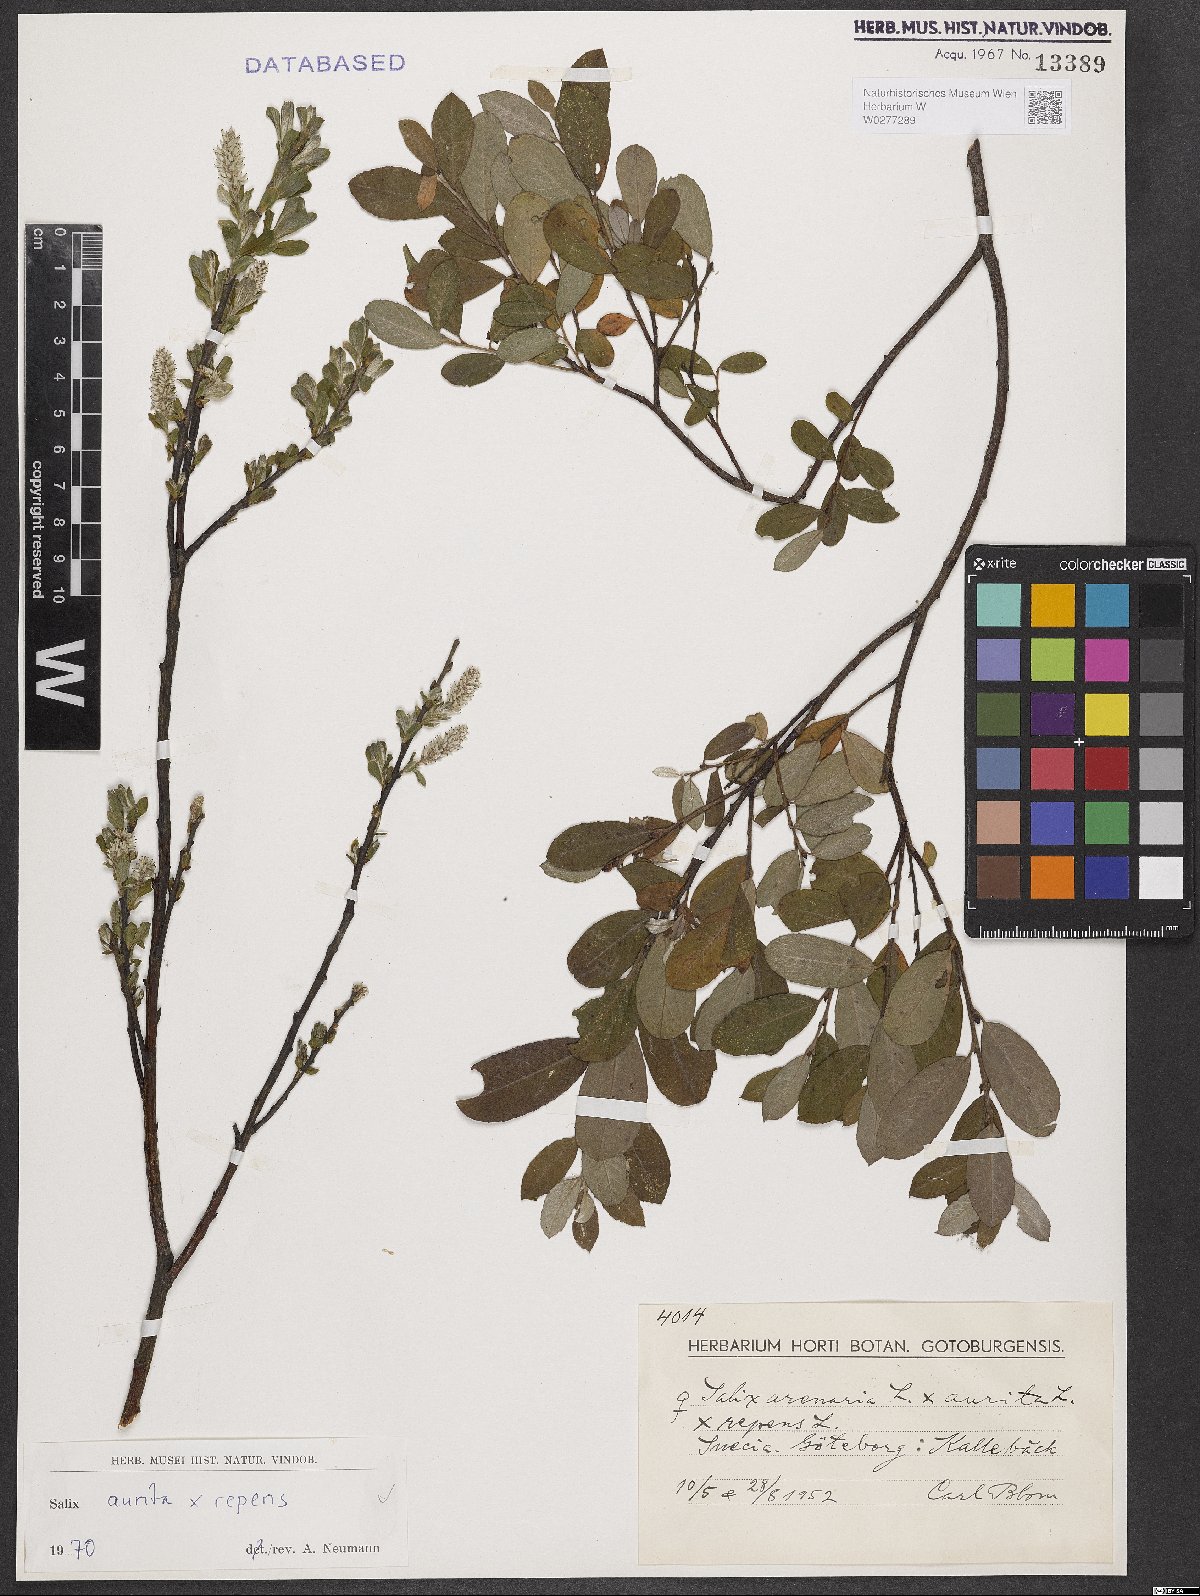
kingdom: Plantae
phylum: Tracheophyta
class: Magnoliopsida
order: Malpighiales
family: Salicaceae
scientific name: Salicaceae
